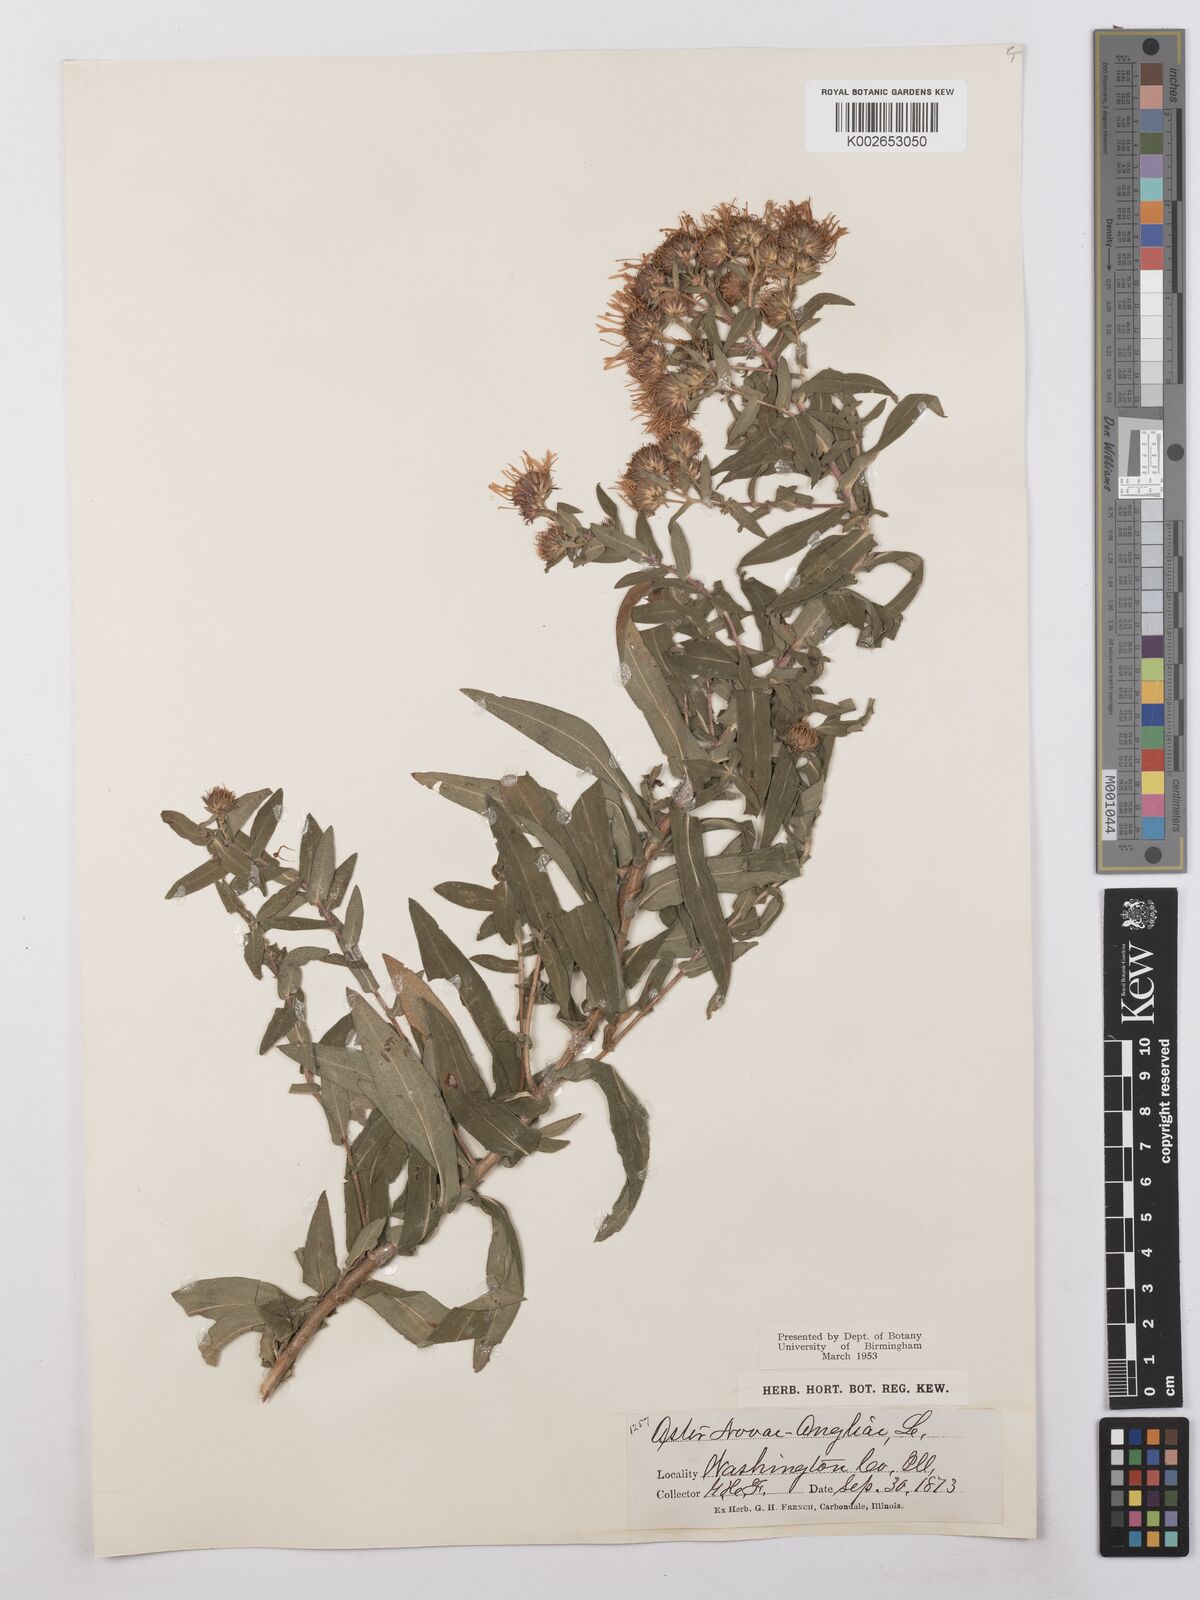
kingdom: Plantae
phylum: Tracheophyta
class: Magnoliopsida
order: Asterales
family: Asteraceae
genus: Symphyotrichum
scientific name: Symphyotrichum novae-angliae
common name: Michaelmas daisy
